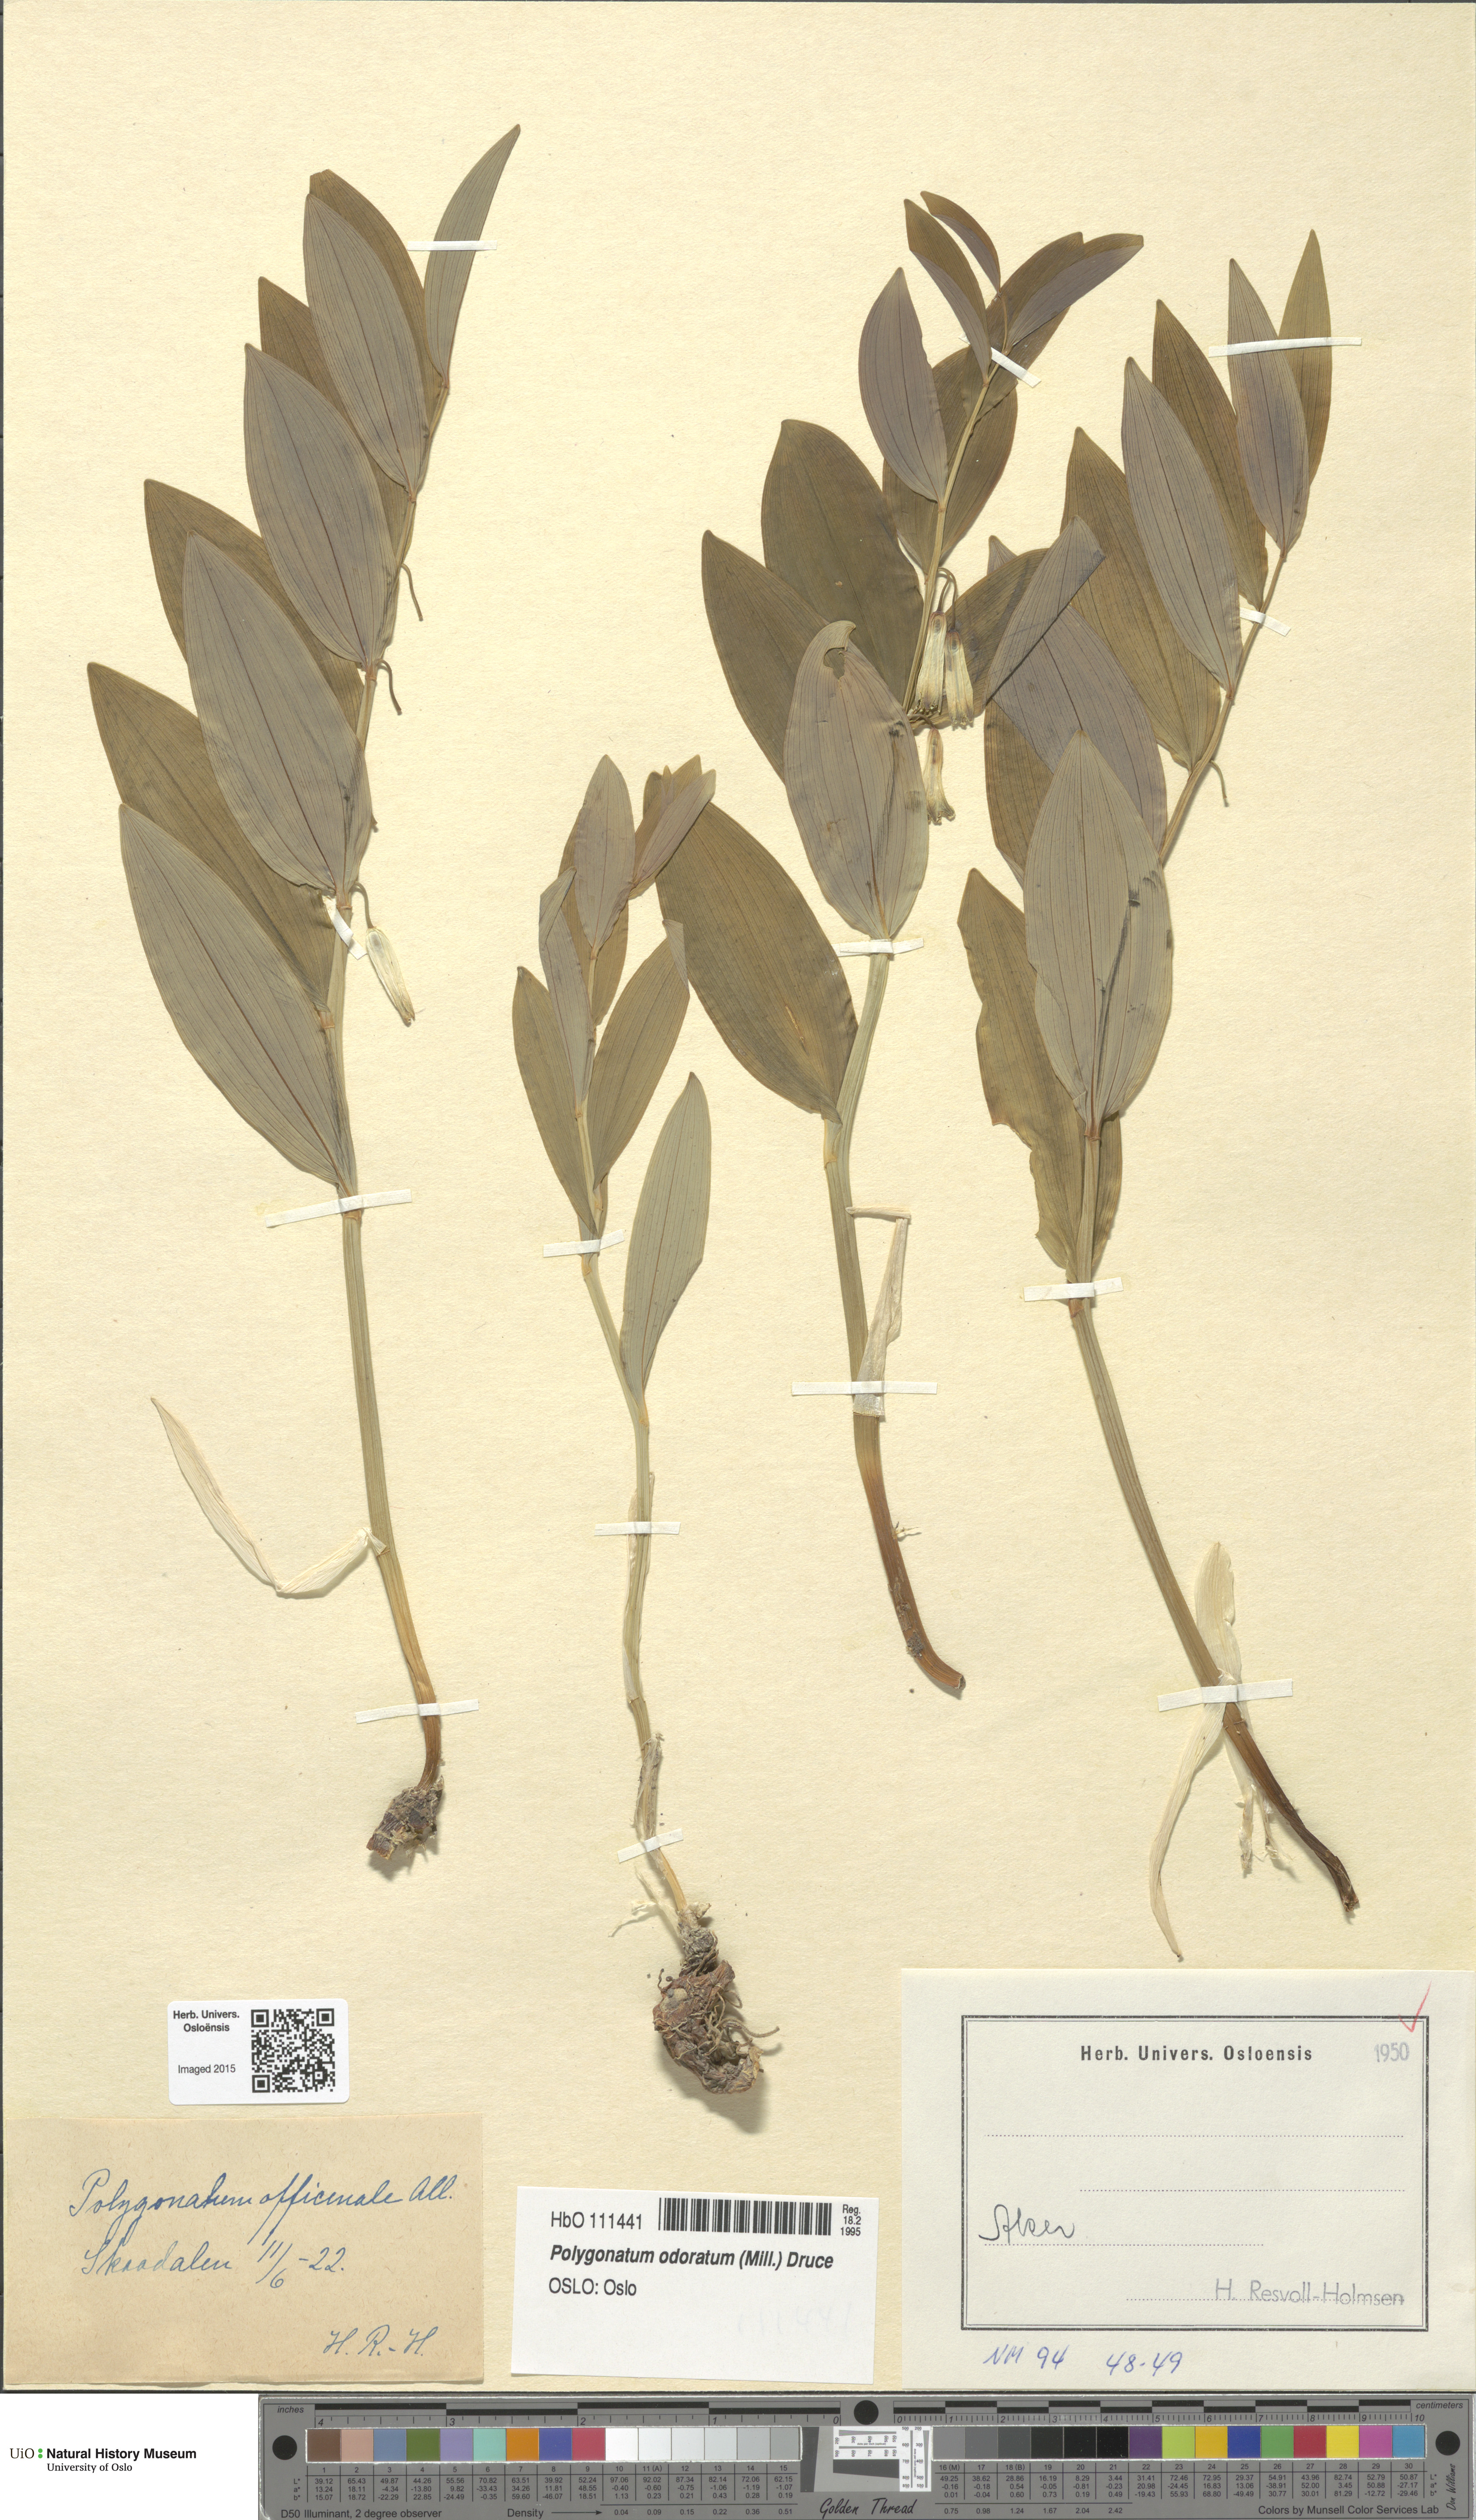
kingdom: Plantae
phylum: Tracheophyta
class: Liliopsida
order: Asparagales
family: Asparagaceae
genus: Polygonatum
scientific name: Polygonatum odoratum
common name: Angular solomon's-seal
